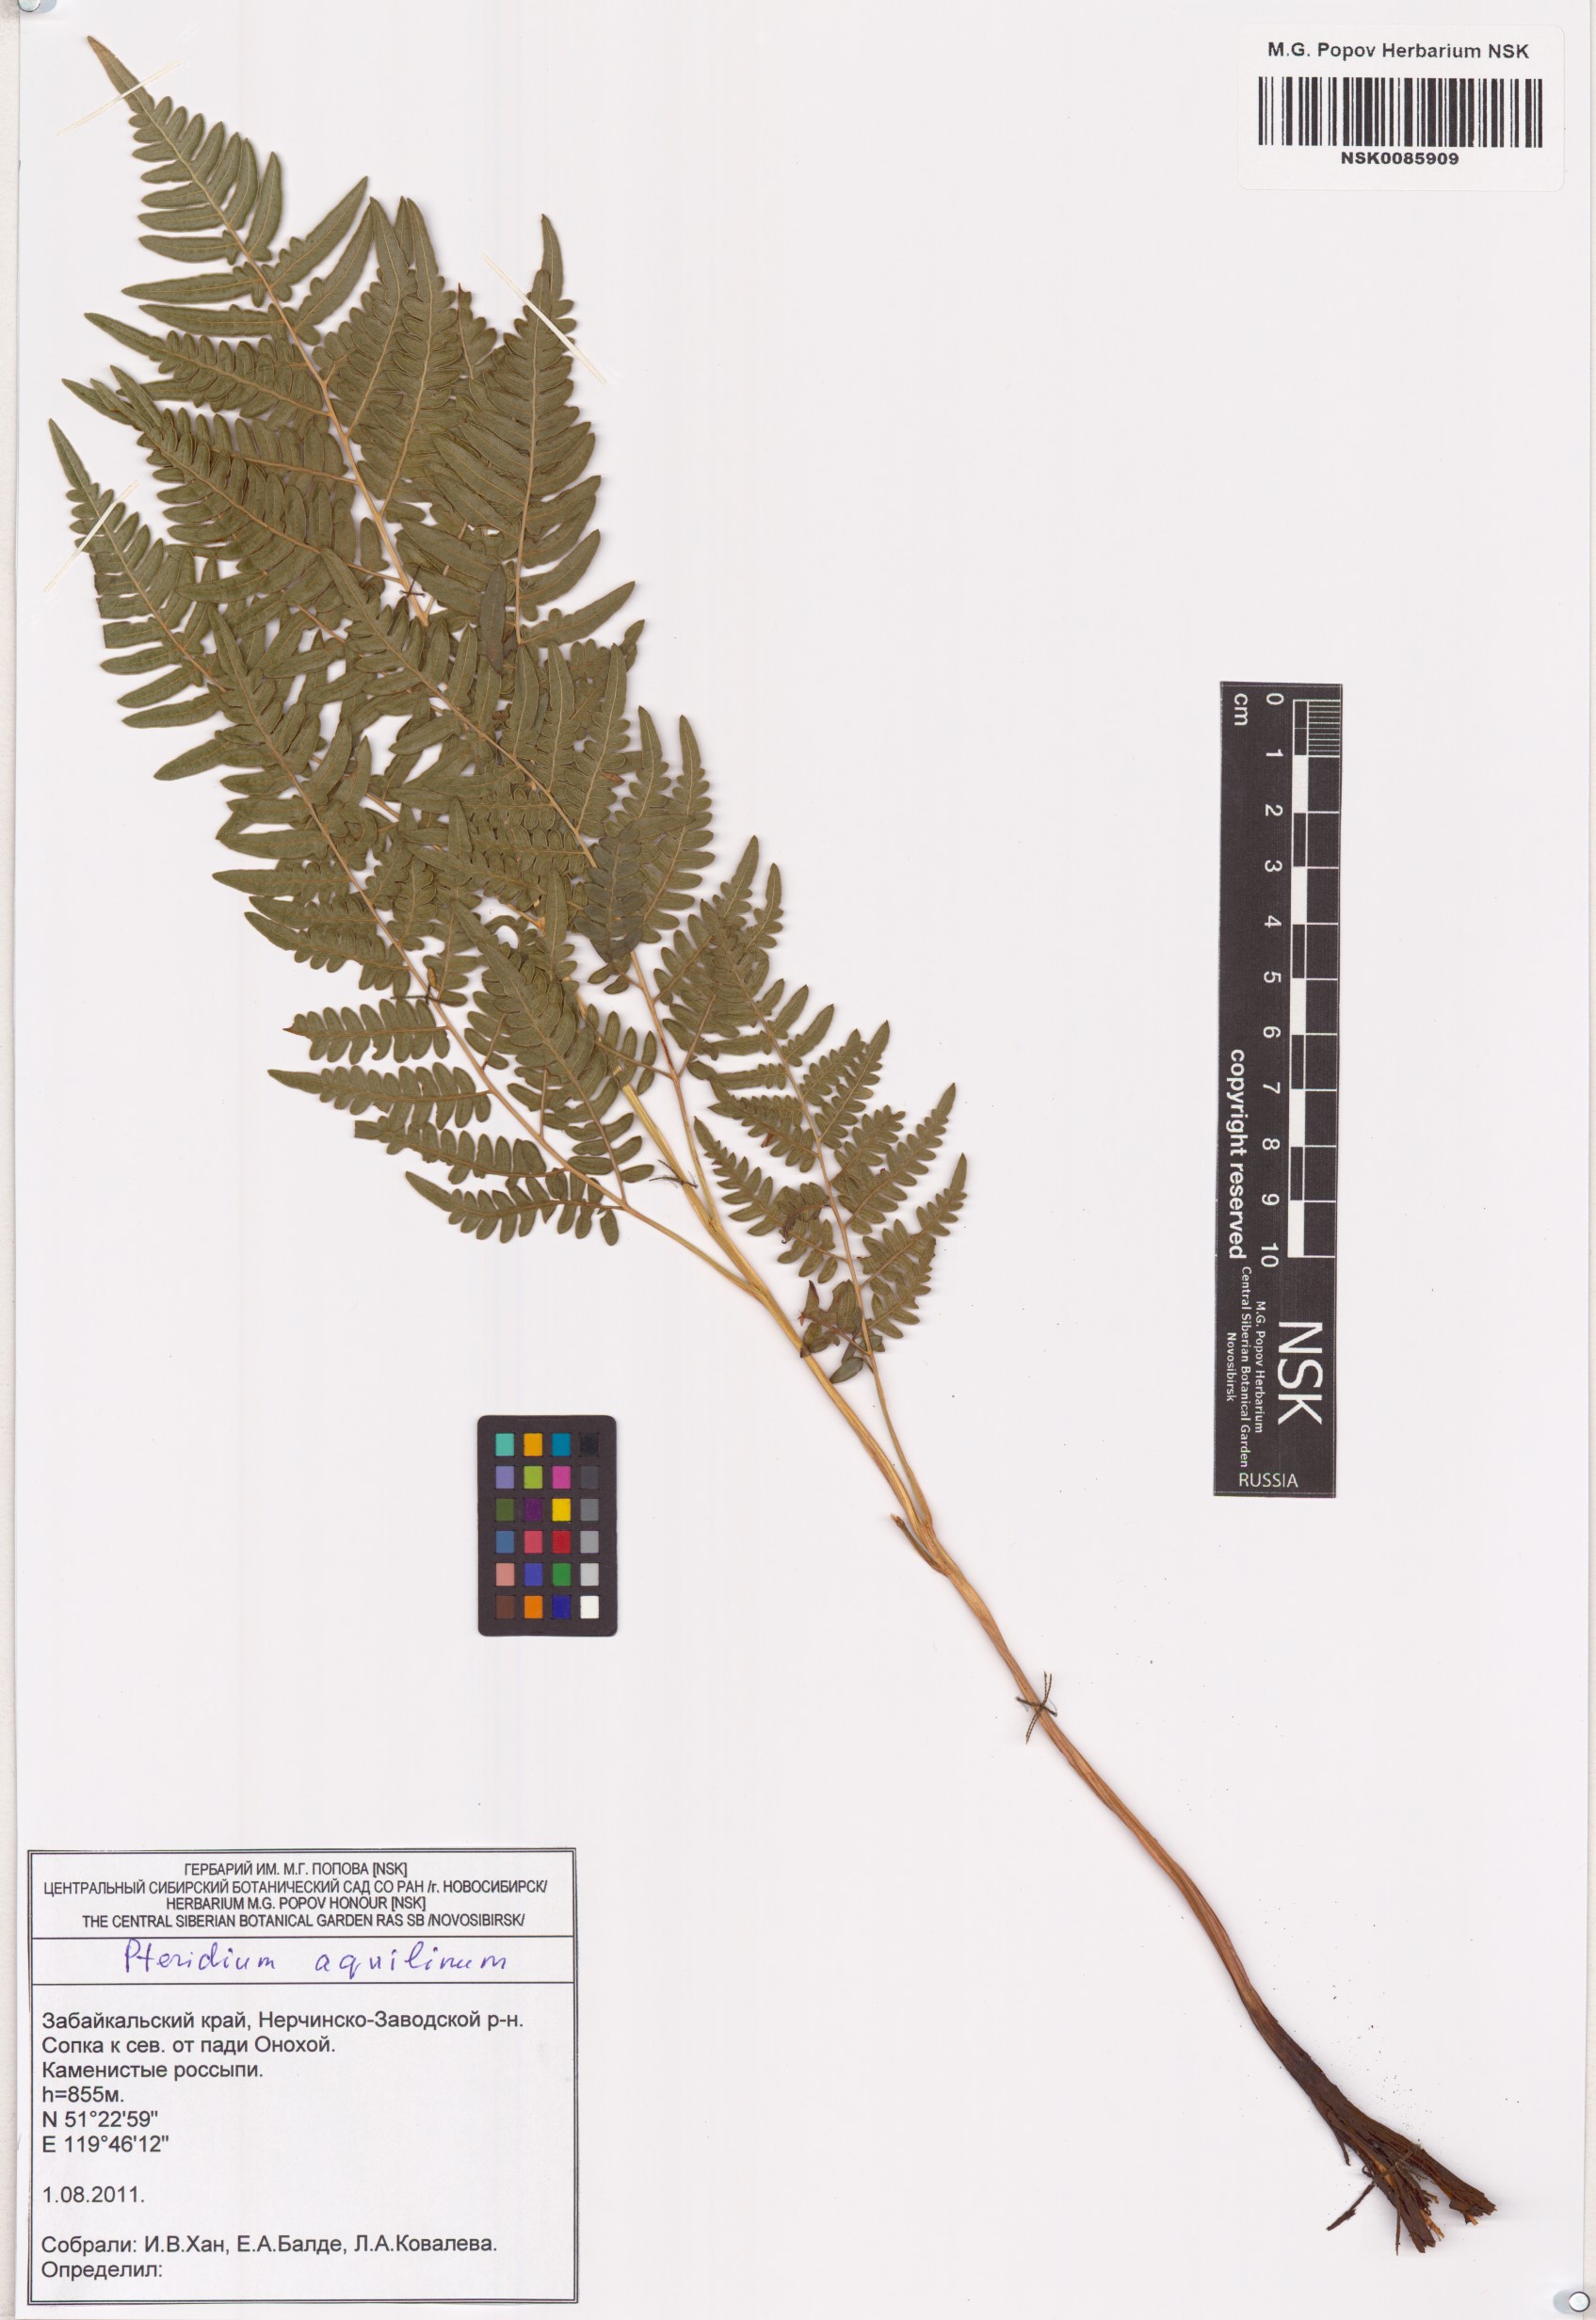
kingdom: Plantae
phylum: Tracheophyta
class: Polypodiopsida
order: Polypodiales
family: Dennstaedtiaceae
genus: Pteridium
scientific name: Pteridium aquilinum
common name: Bracken
